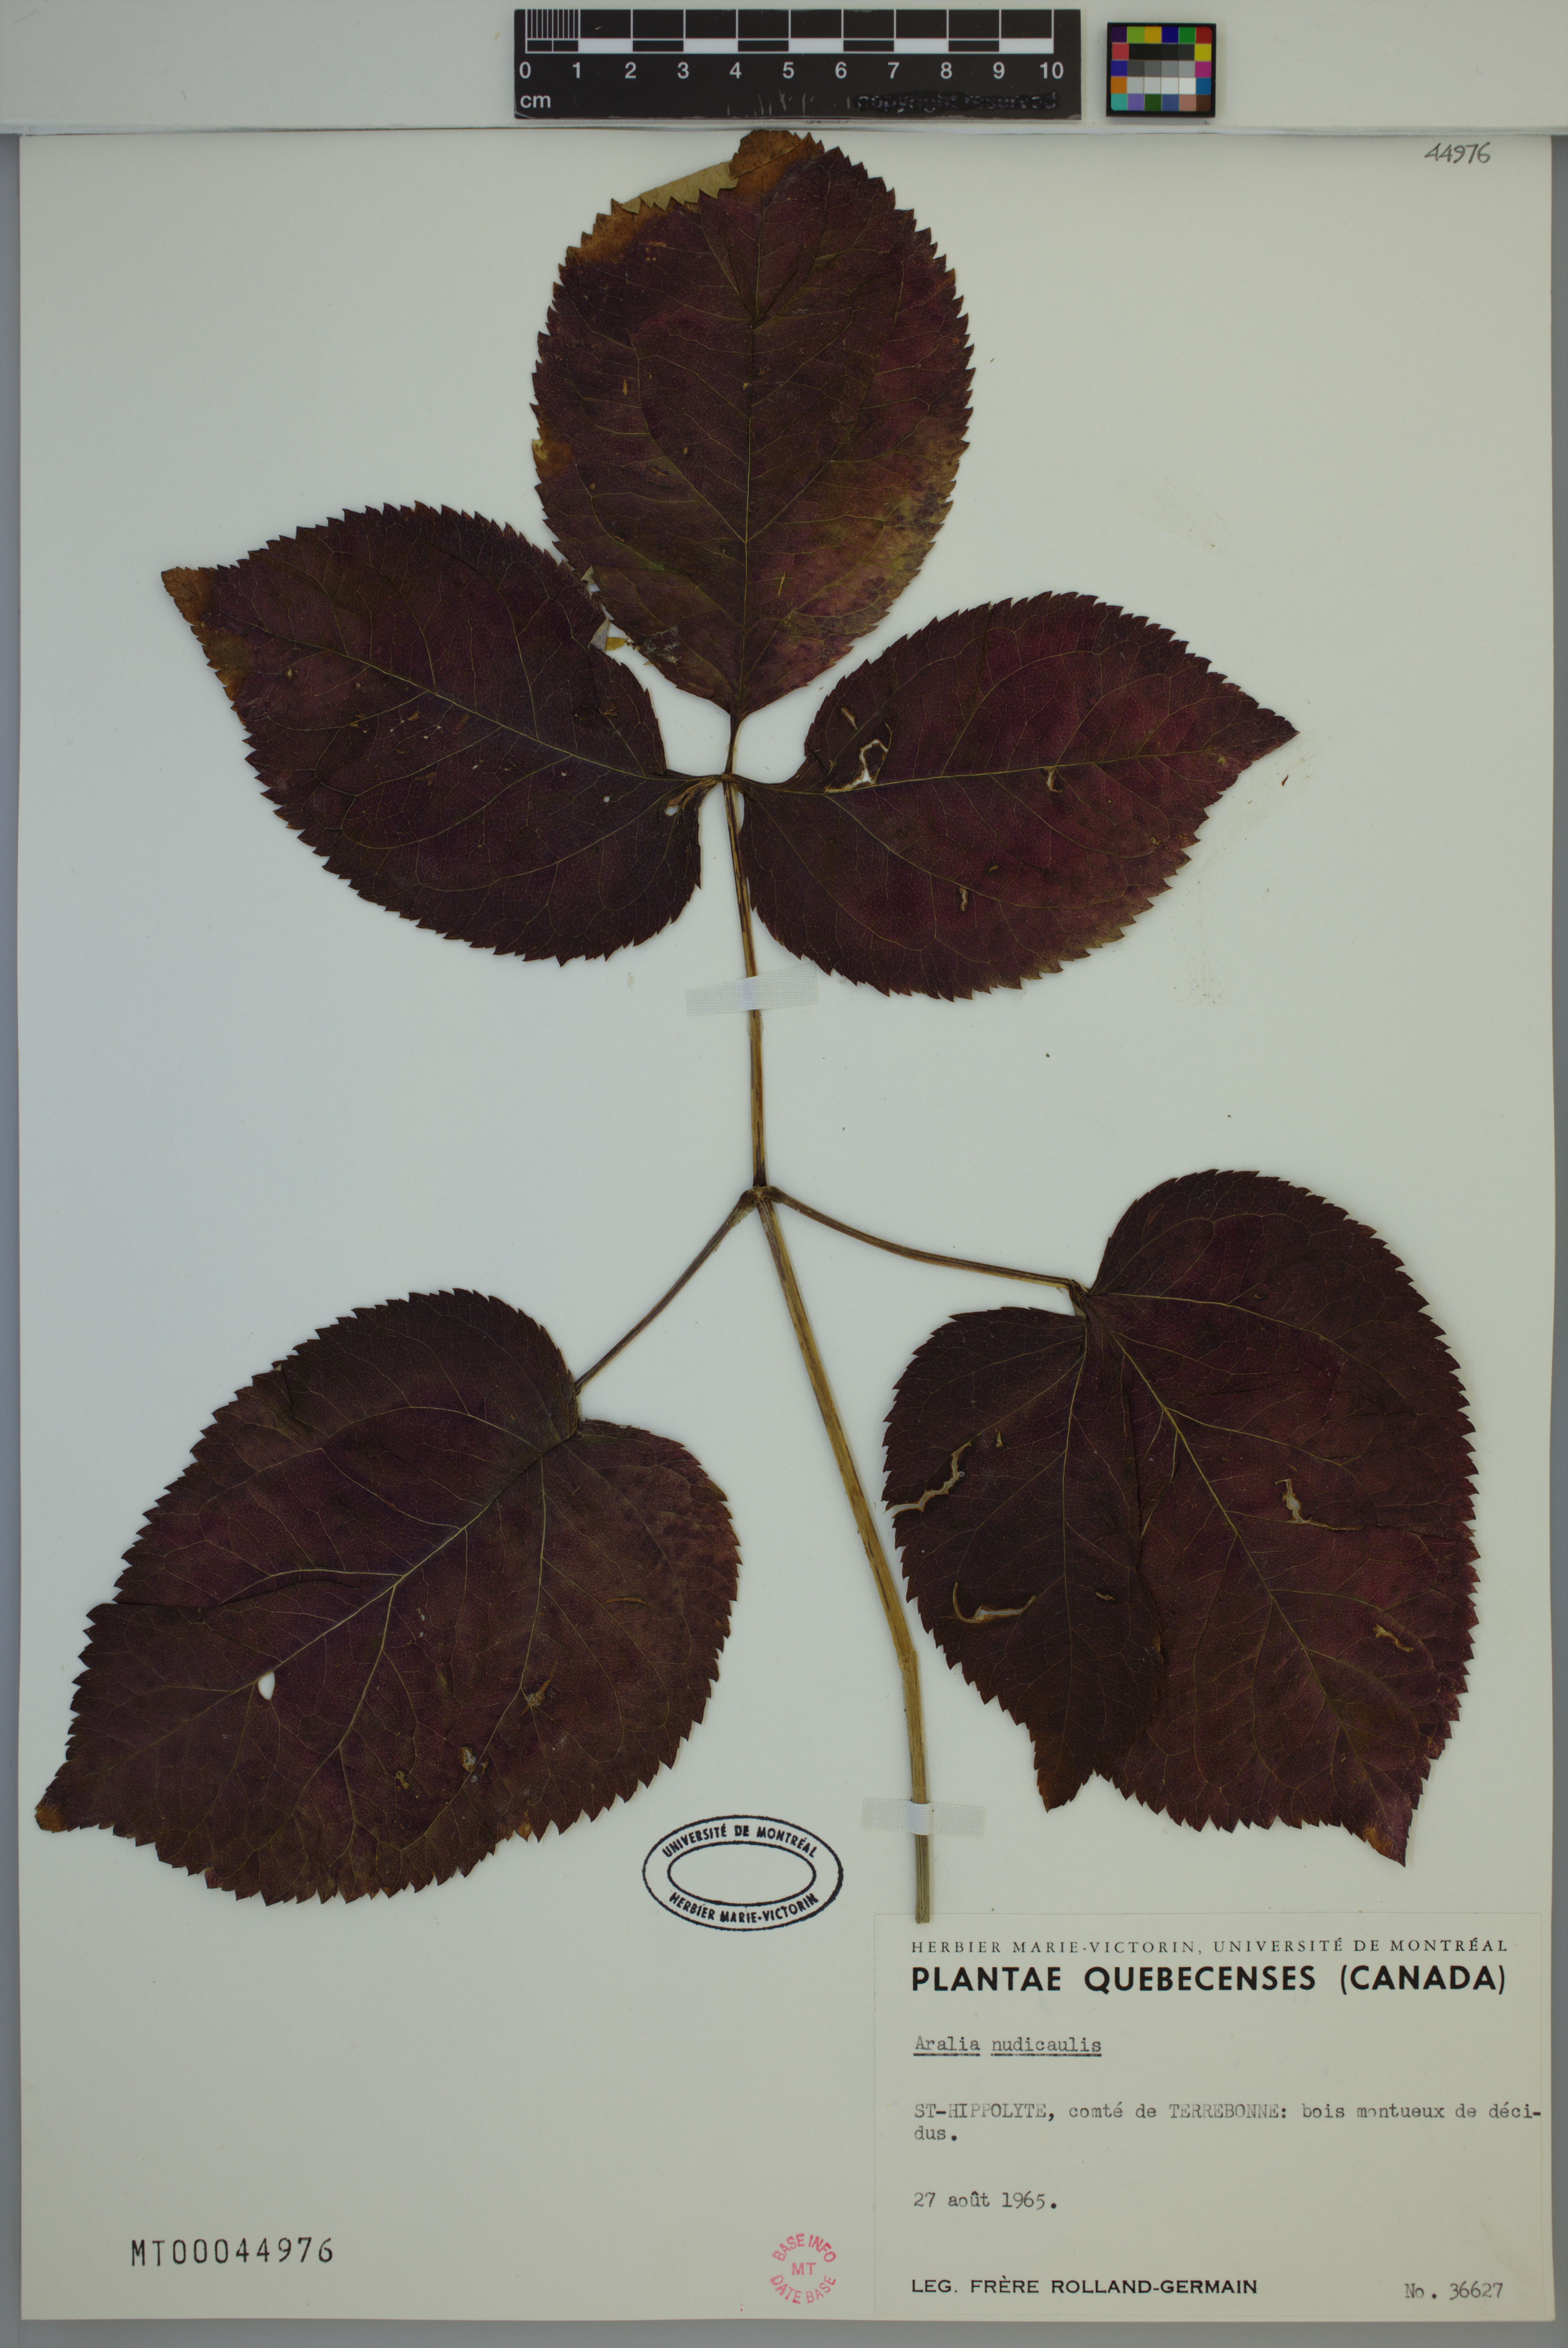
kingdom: Plantae
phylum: Tracheophyta
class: Magnoliopsida
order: Apiales
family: Araliaceae
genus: Aralia
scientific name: Aralia nudicaulis
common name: Wild sarsaparilla
